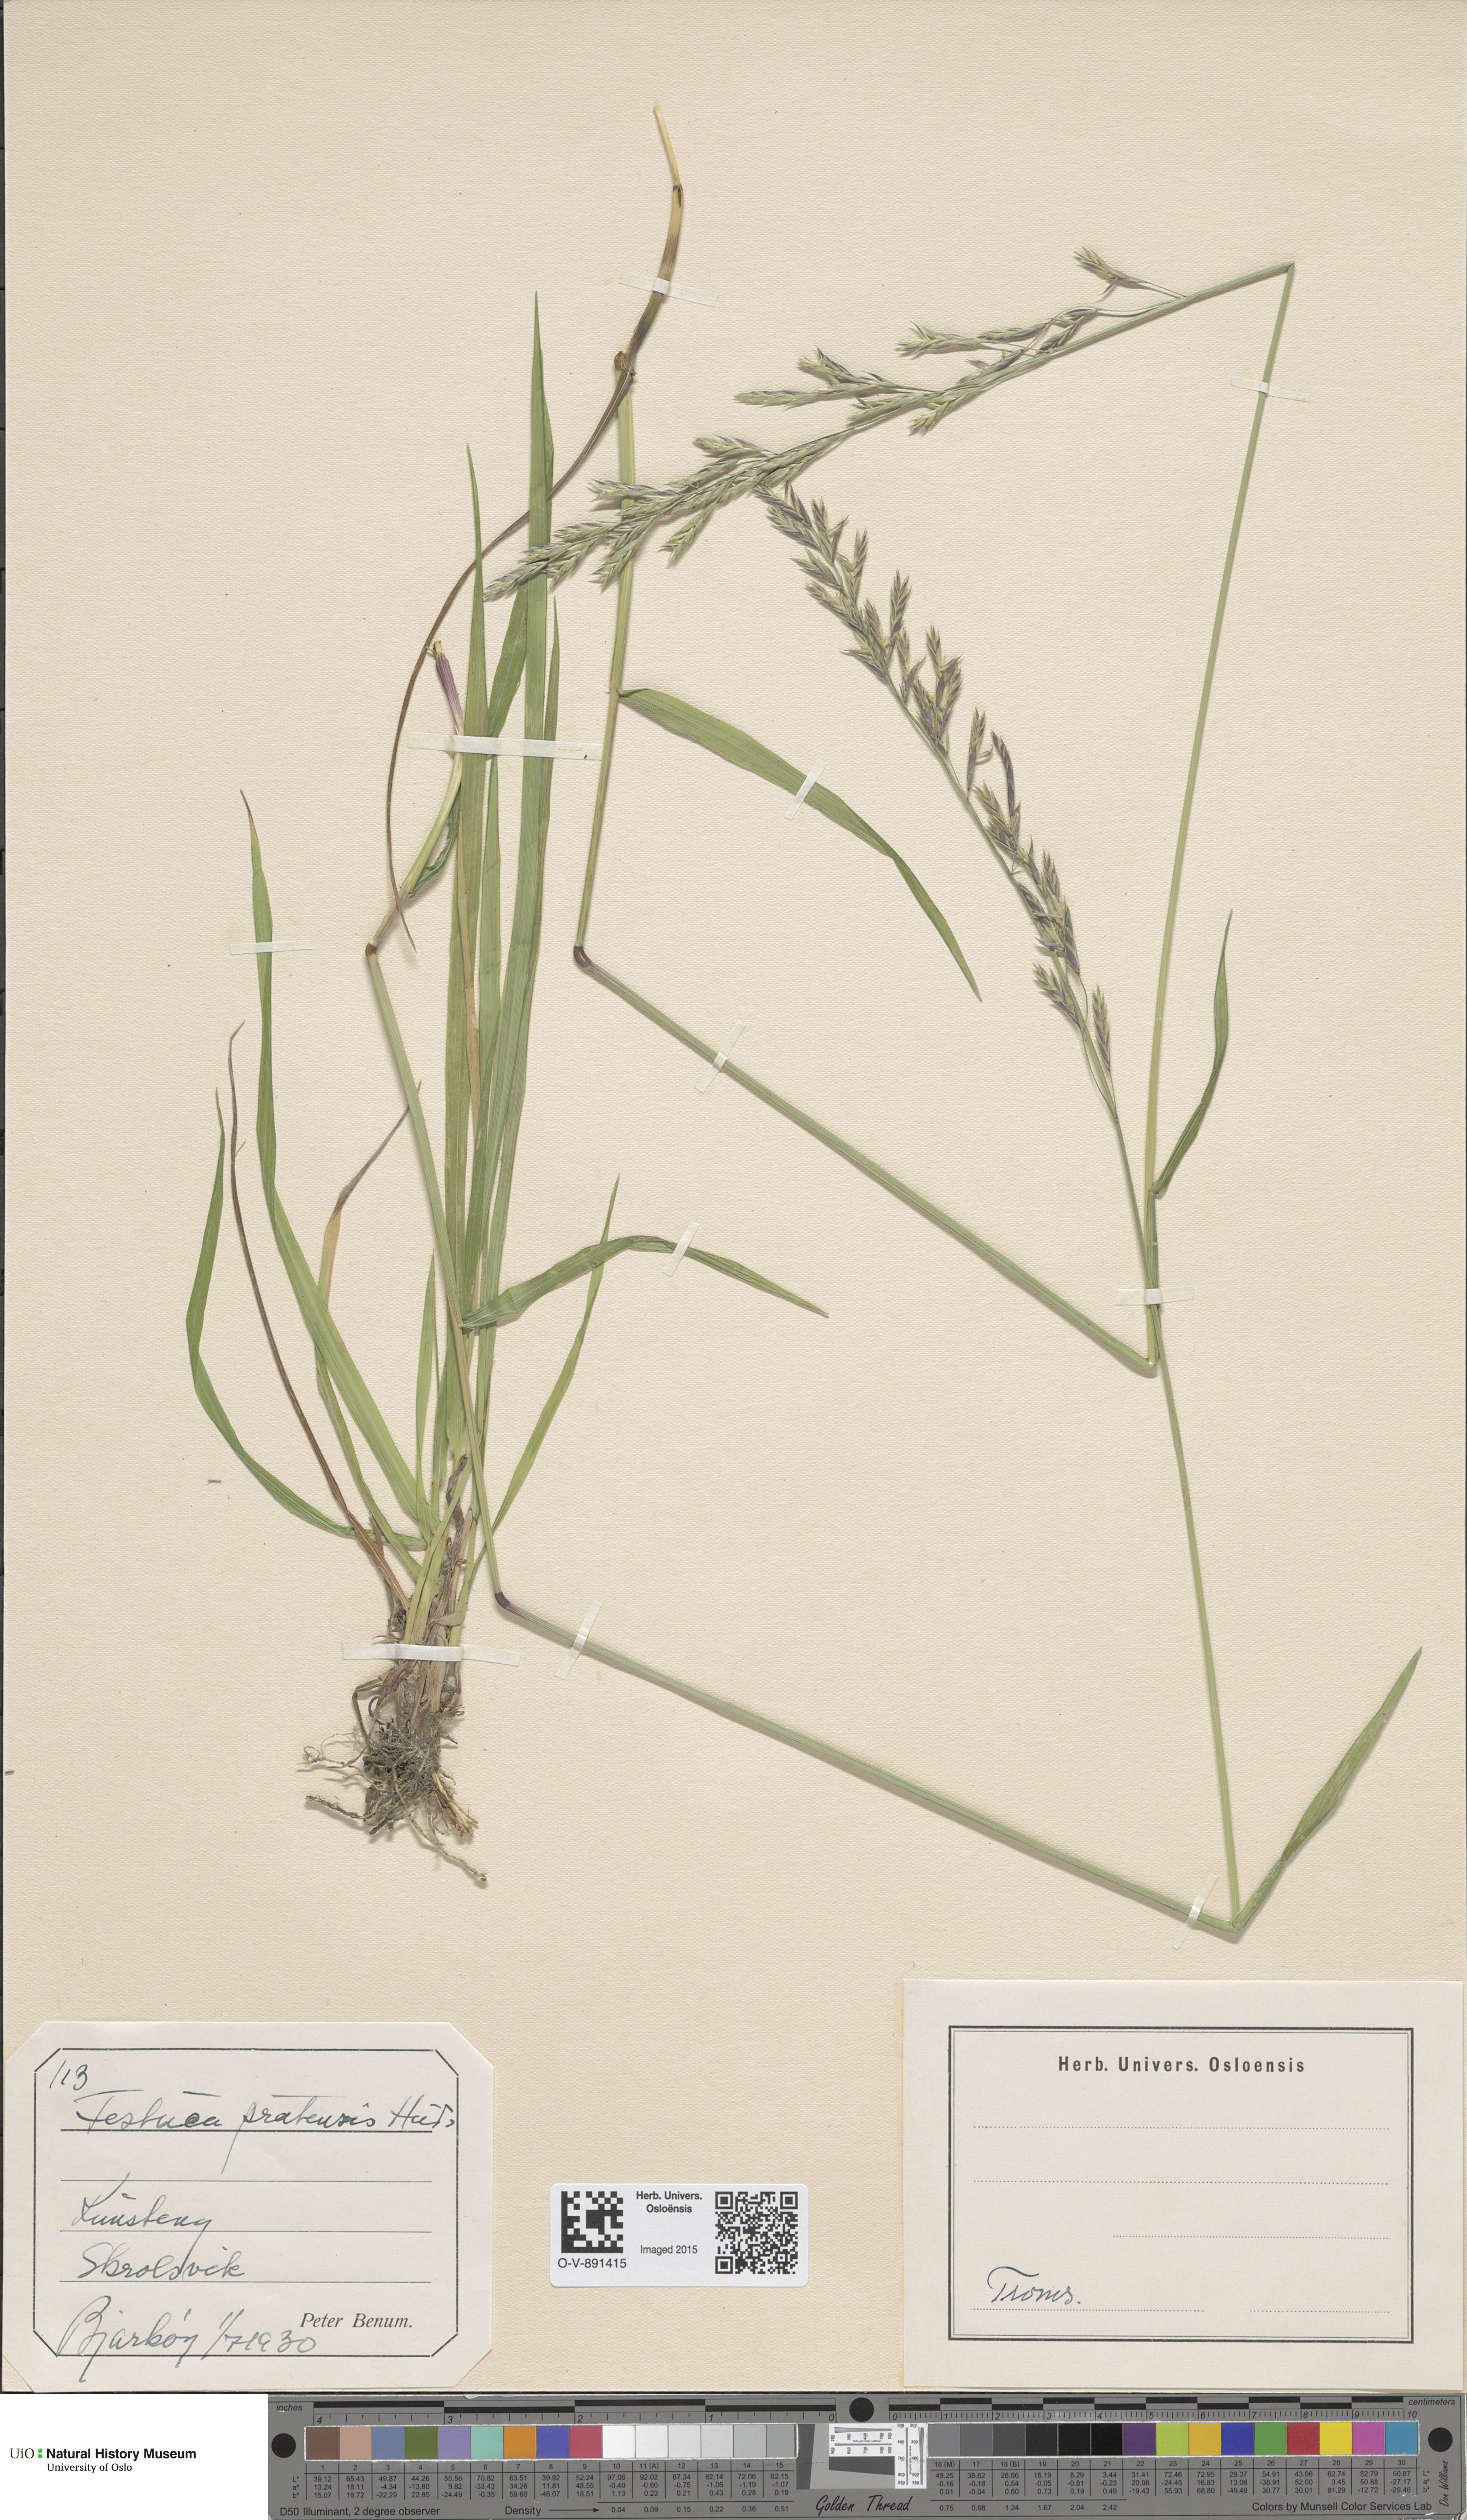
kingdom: Plantae
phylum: Tracheophyta
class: Liliopsida
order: Poales
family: Poaceae
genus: Lolium
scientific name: Lolium pratense
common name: Dover grass
